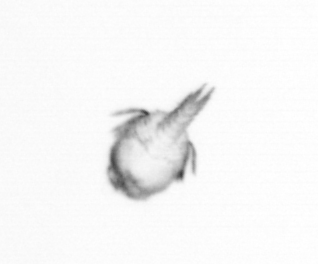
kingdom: Animalia
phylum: Echinodermata
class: Crinoidea
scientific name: Crinoidea
